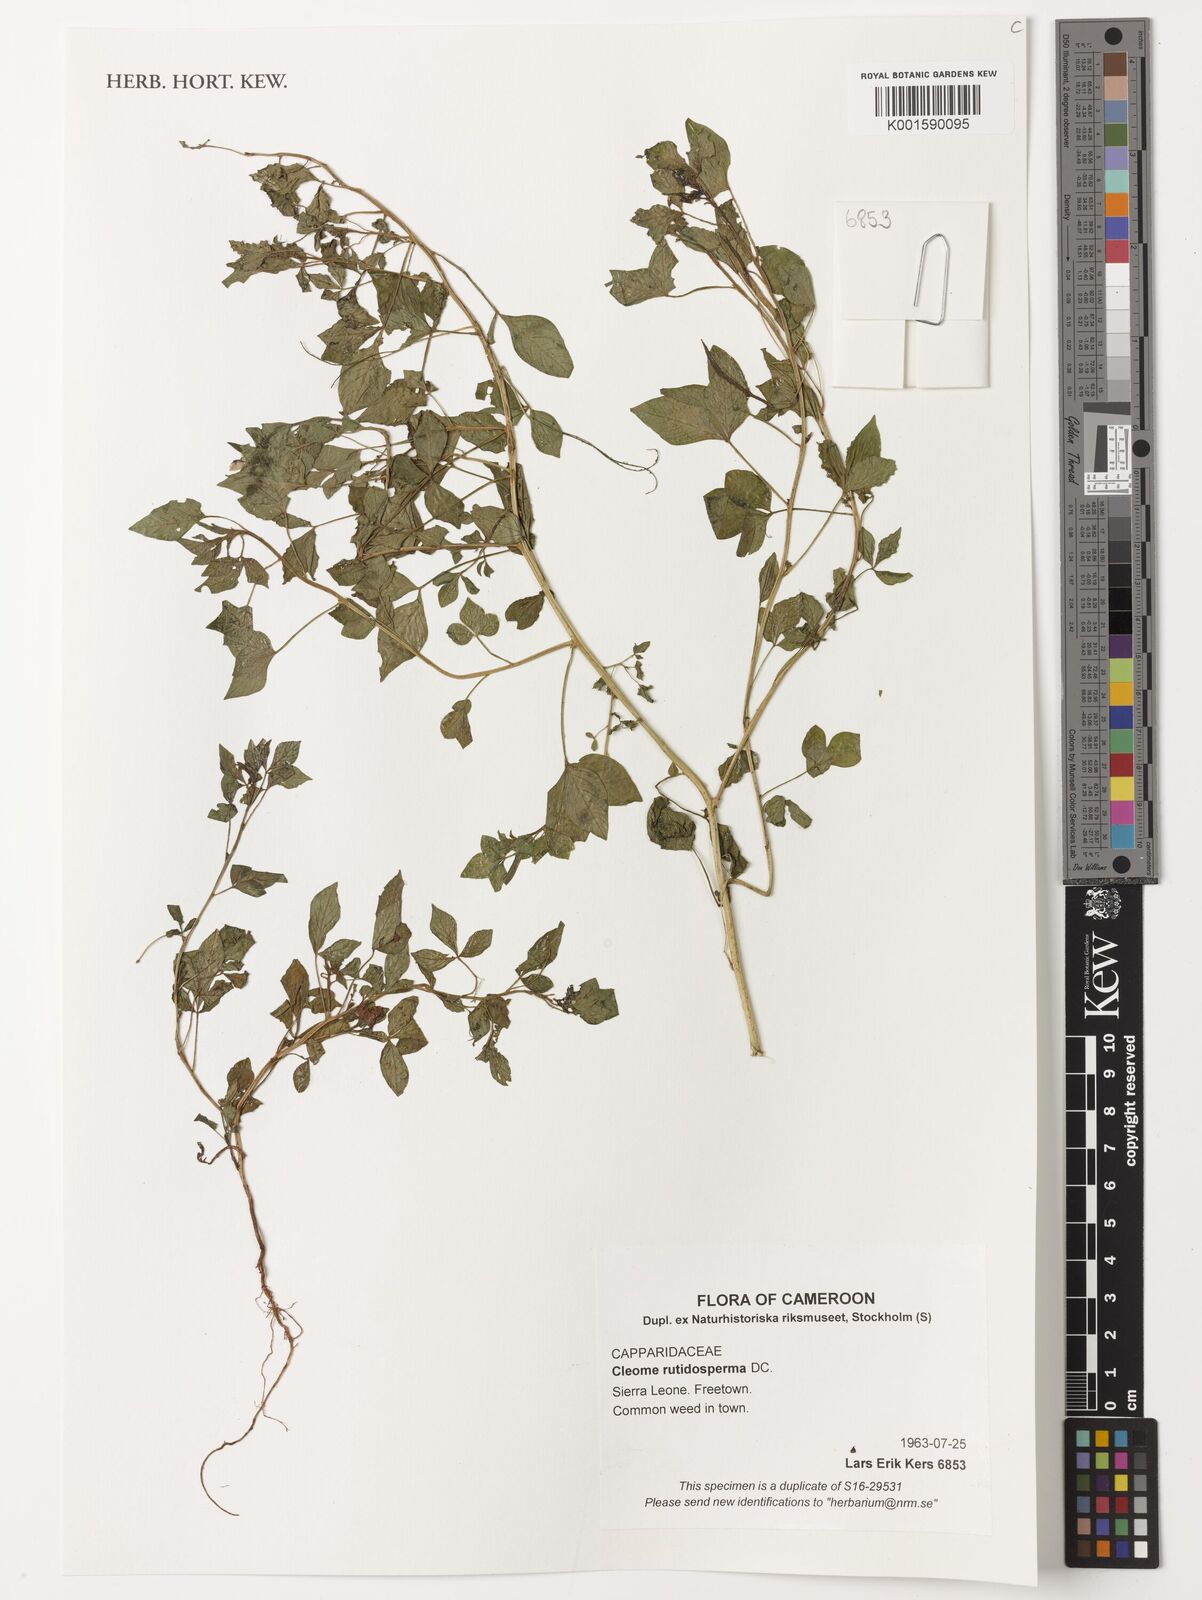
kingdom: Plantae
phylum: Tracheophyta
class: Magnoliopsida
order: Brassicales
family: Cleomaceae
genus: Sieruela
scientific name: Sieruela rutidosperma
